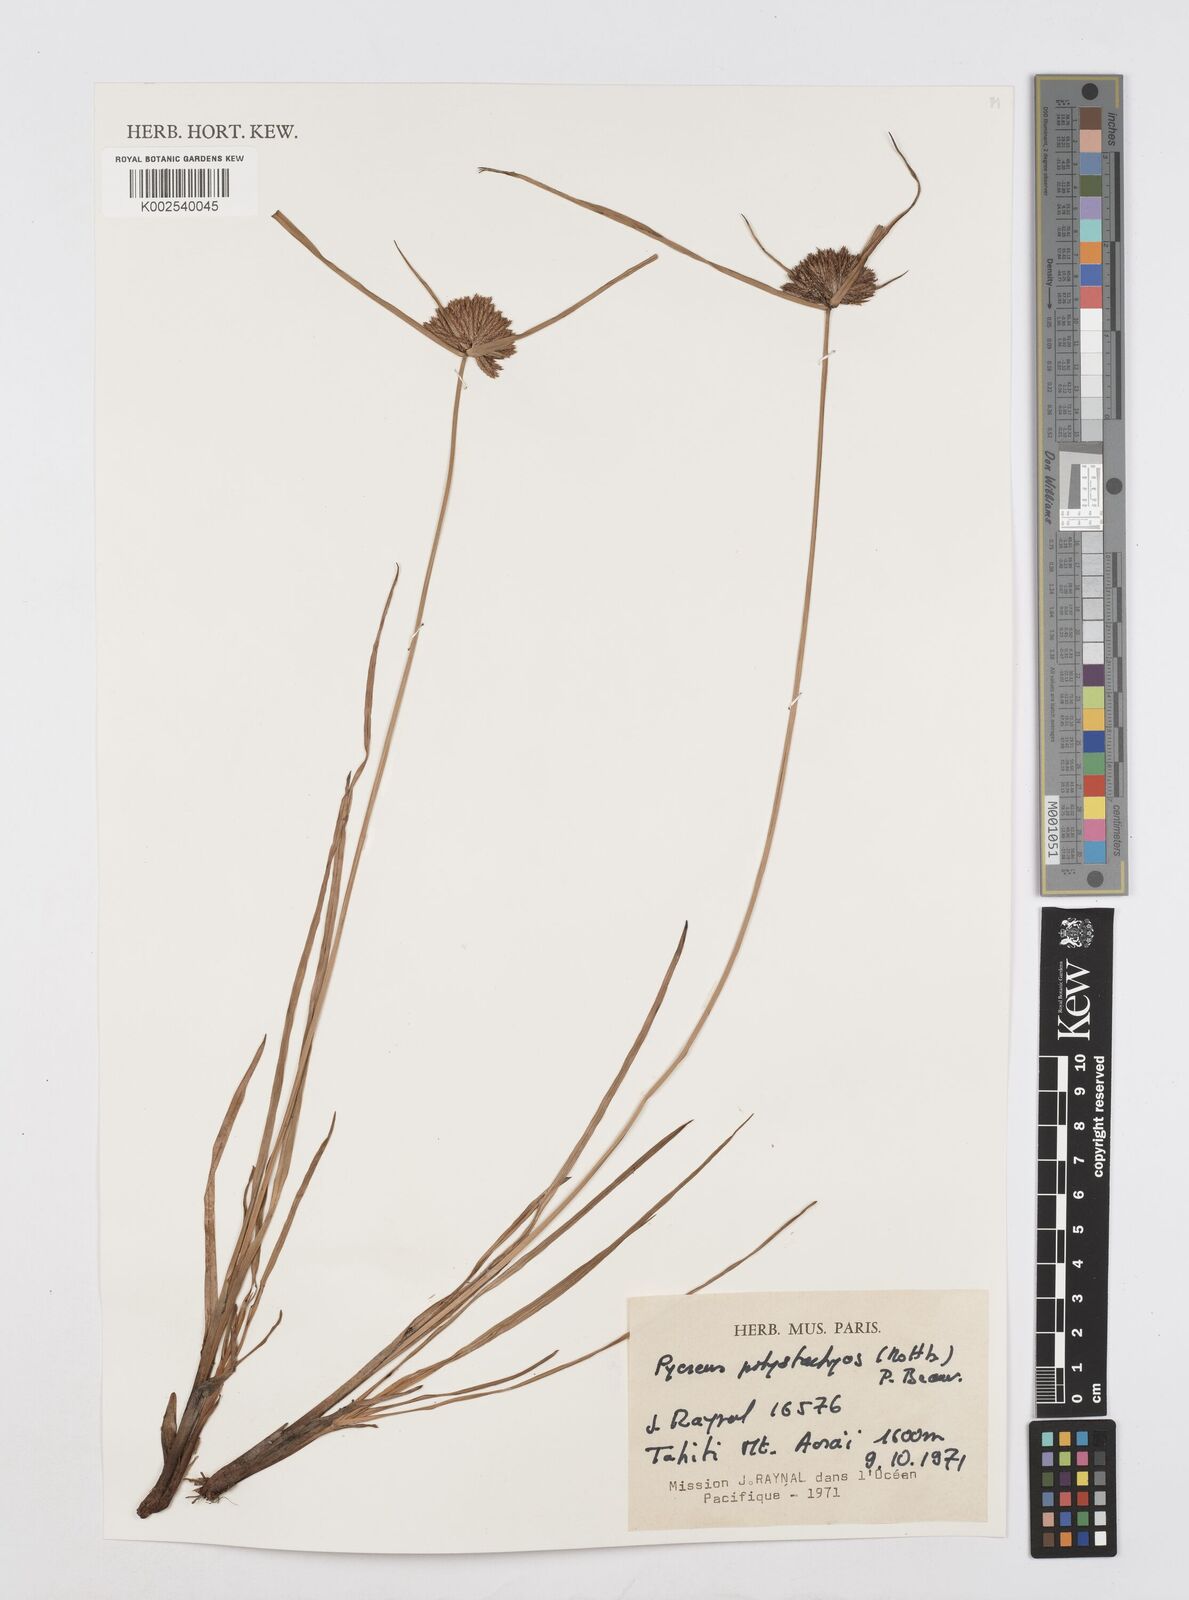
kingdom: Plantae
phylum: Tracheophyta
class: Liliopsida
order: Poales
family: Cyperaceae
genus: Cyperus
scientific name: Cyperus polystachyos
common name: Bunchy flat sedge
